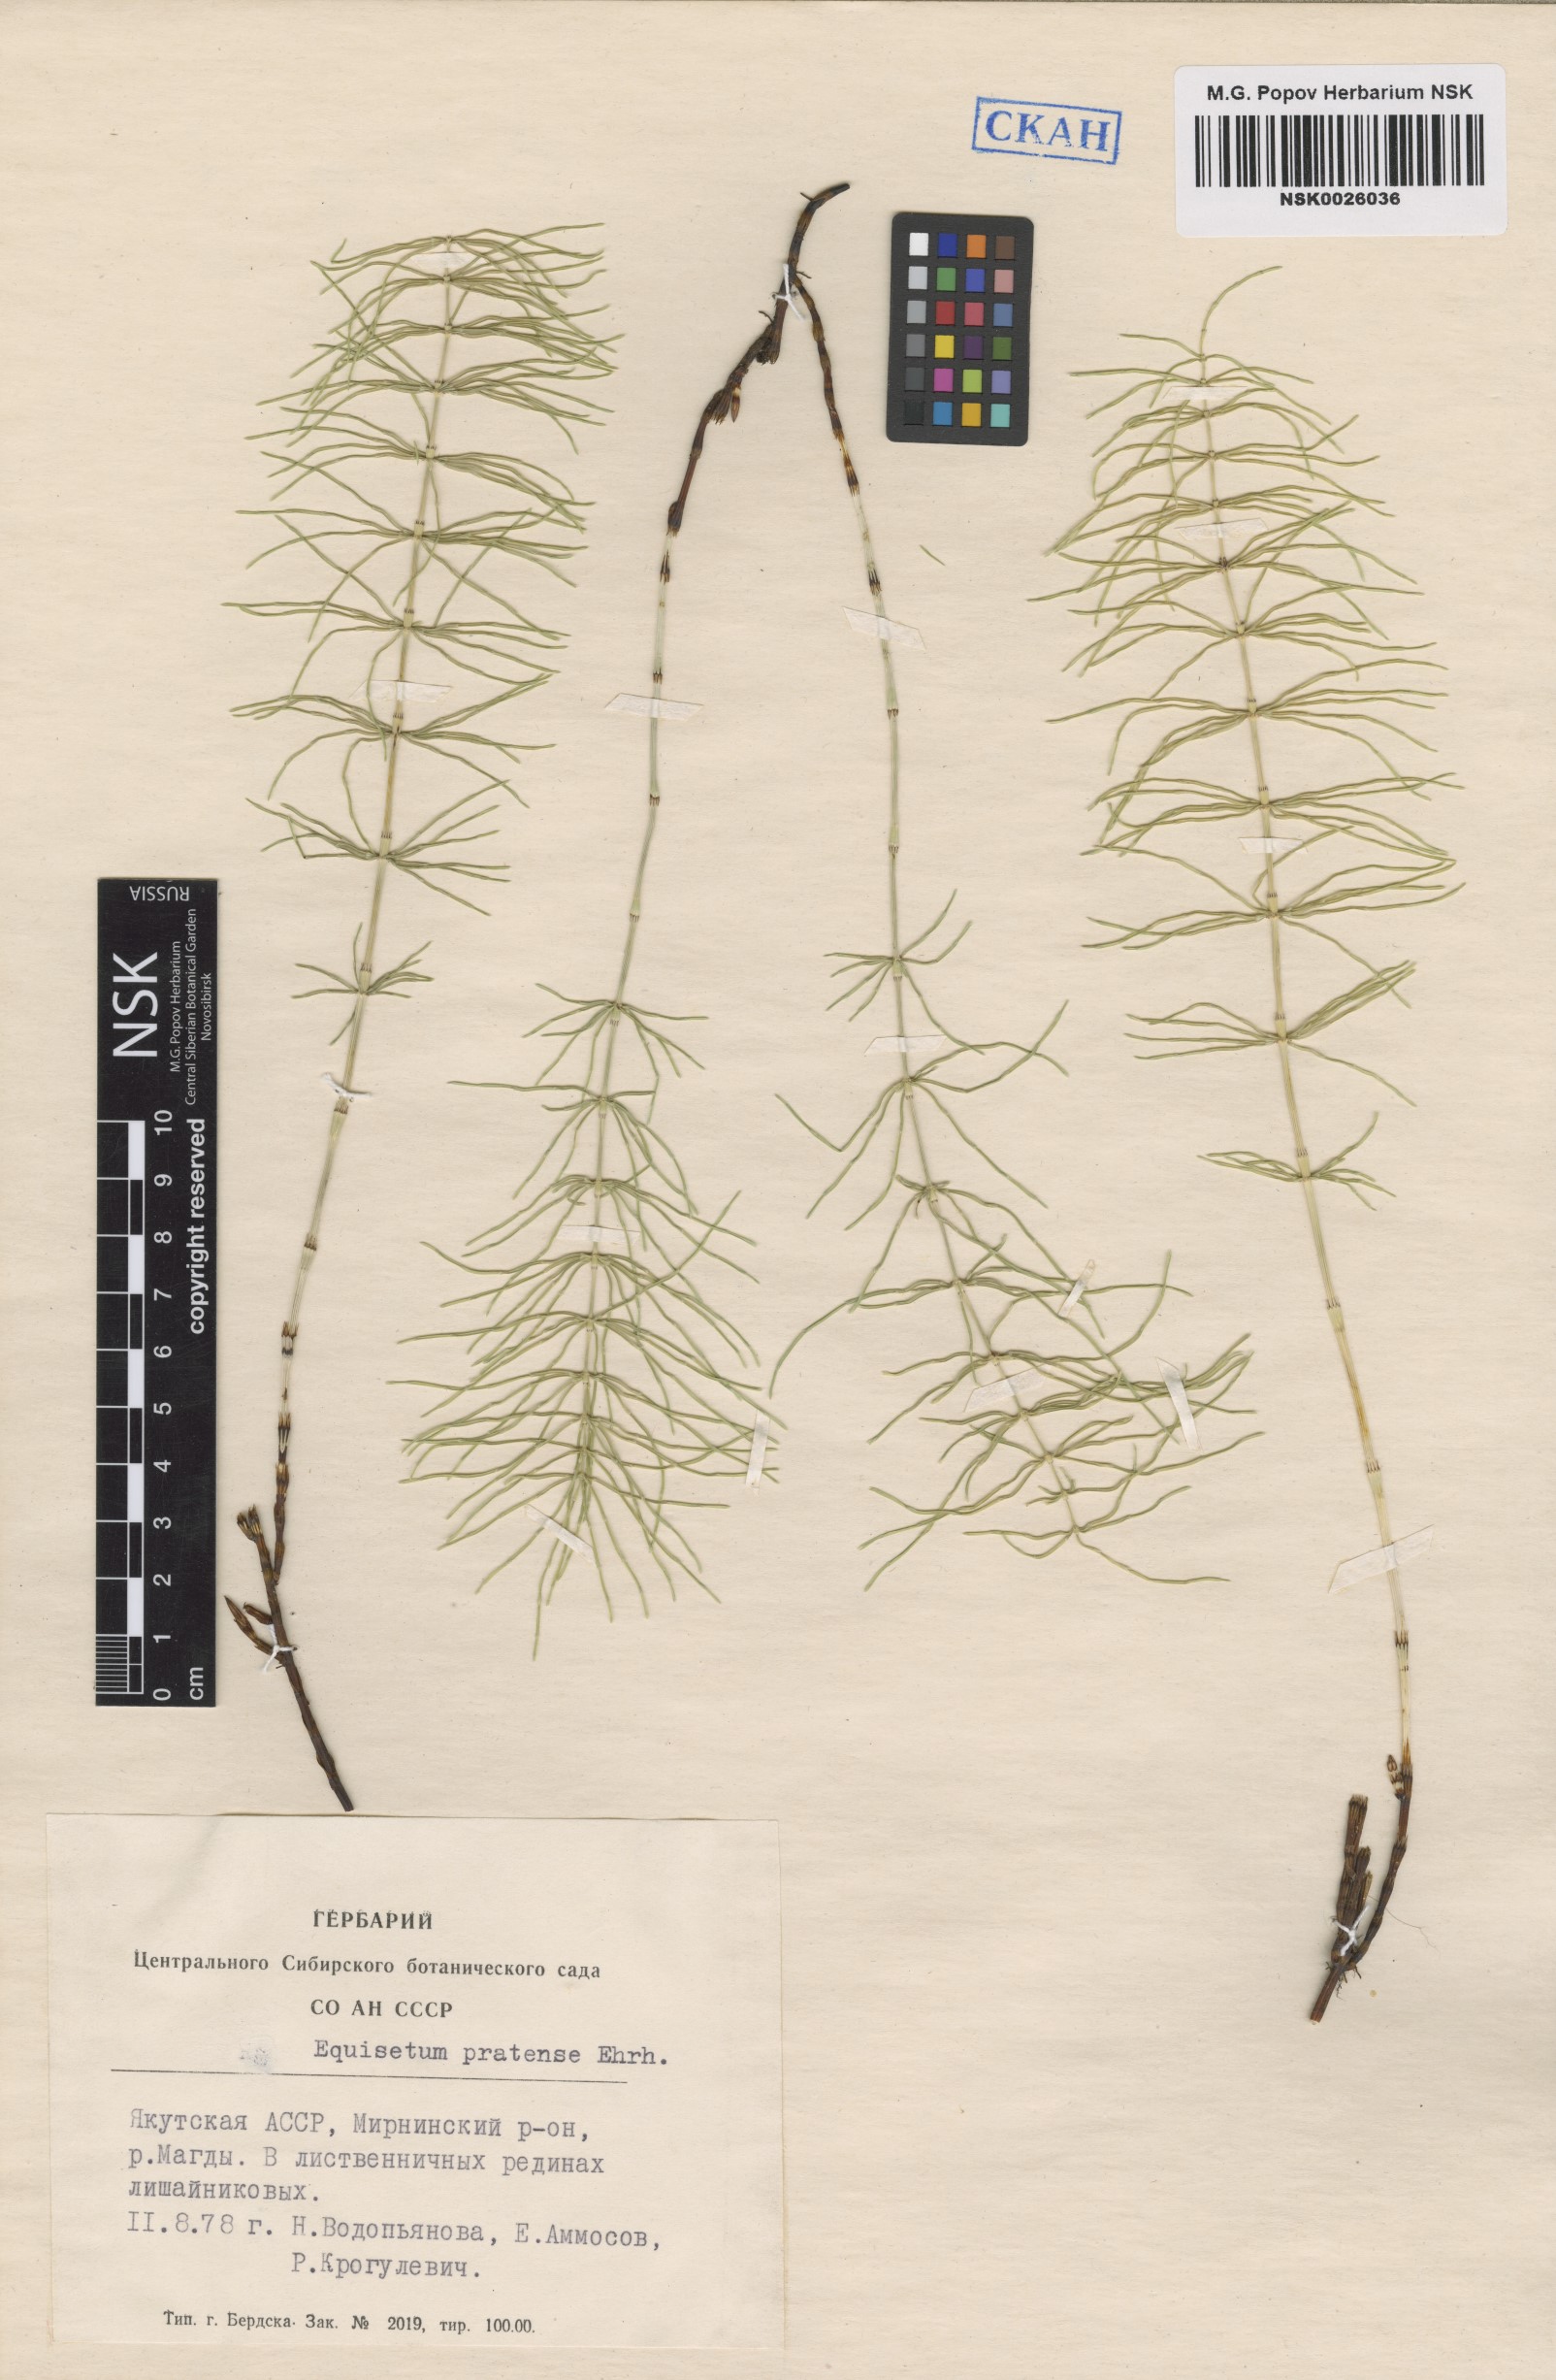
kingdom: Plantae
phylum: Tracheophyta
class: Polypodiopsida
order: Equisetales
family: Equisetaceae
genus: Equisetum
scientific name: Equisetum pratense
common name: Meadow horsetail
